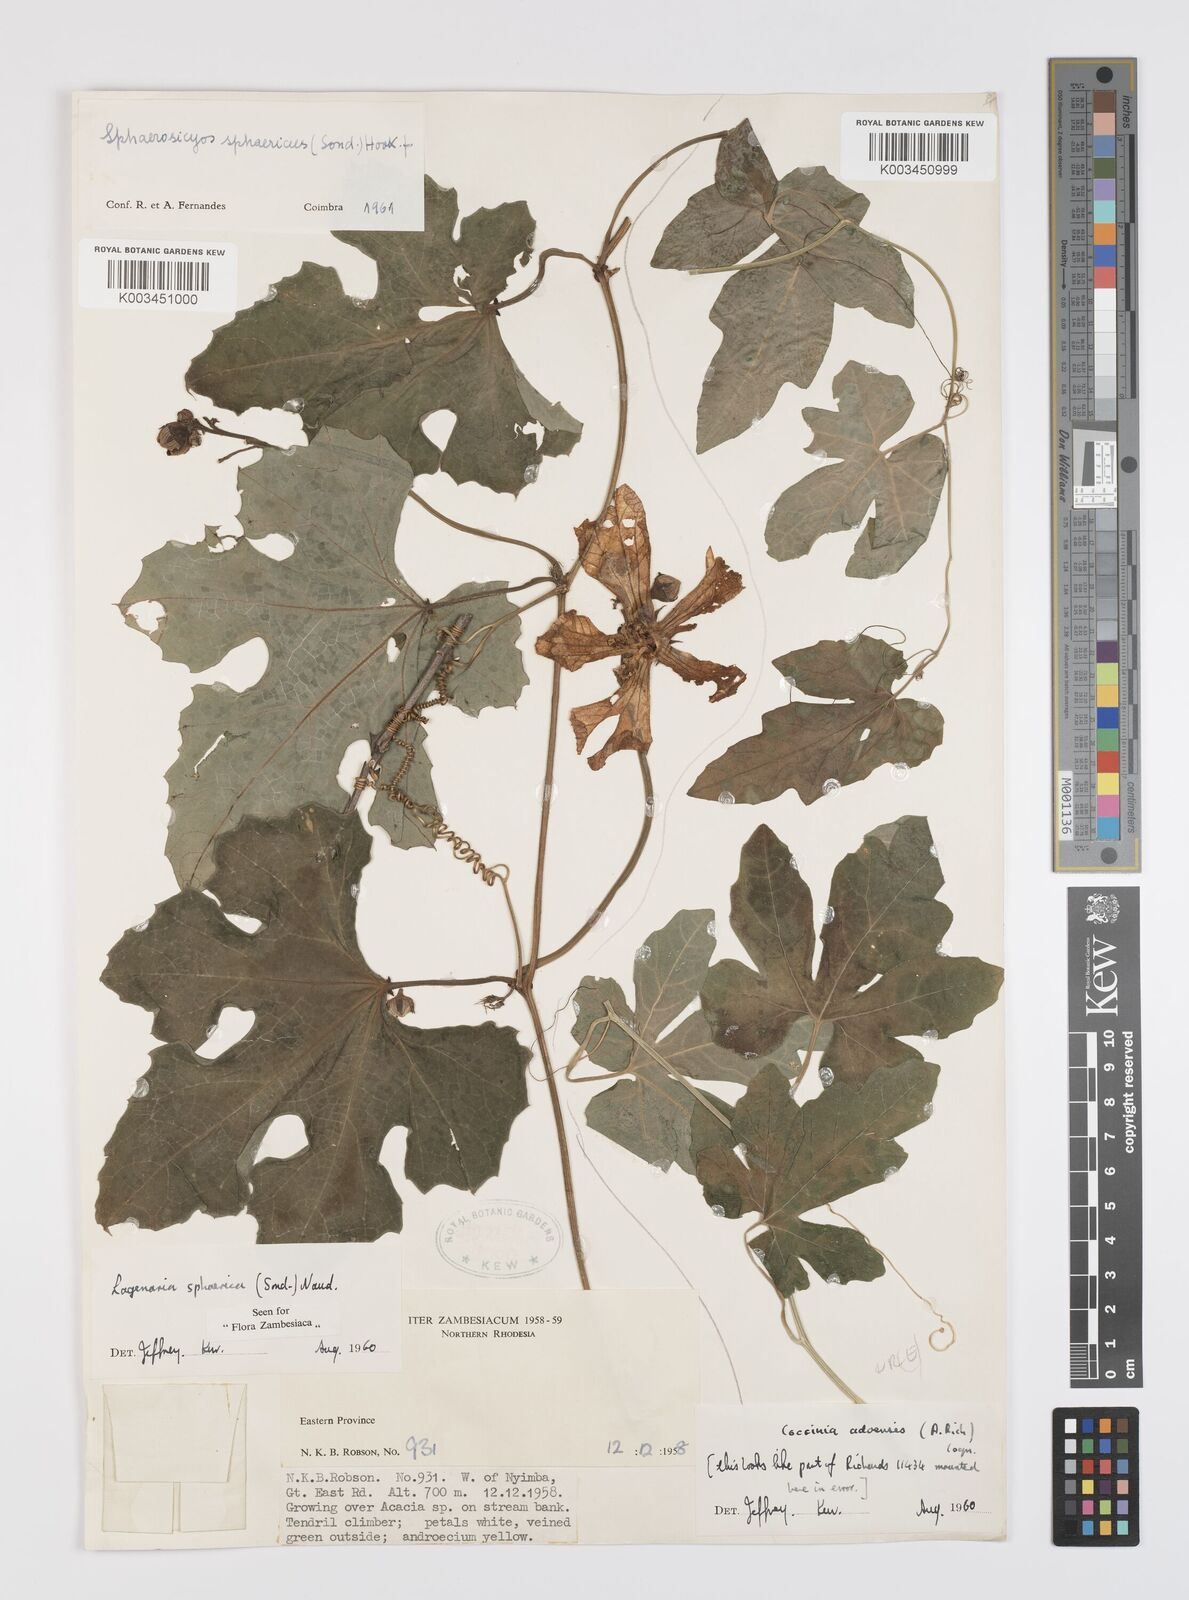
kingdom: Plantae
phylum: Tracheophyta
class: Magnoliopsida
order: Cucurbitales
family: Cucurbitaceae
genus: Lagenaria
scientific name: Lagenaria sphaerica
